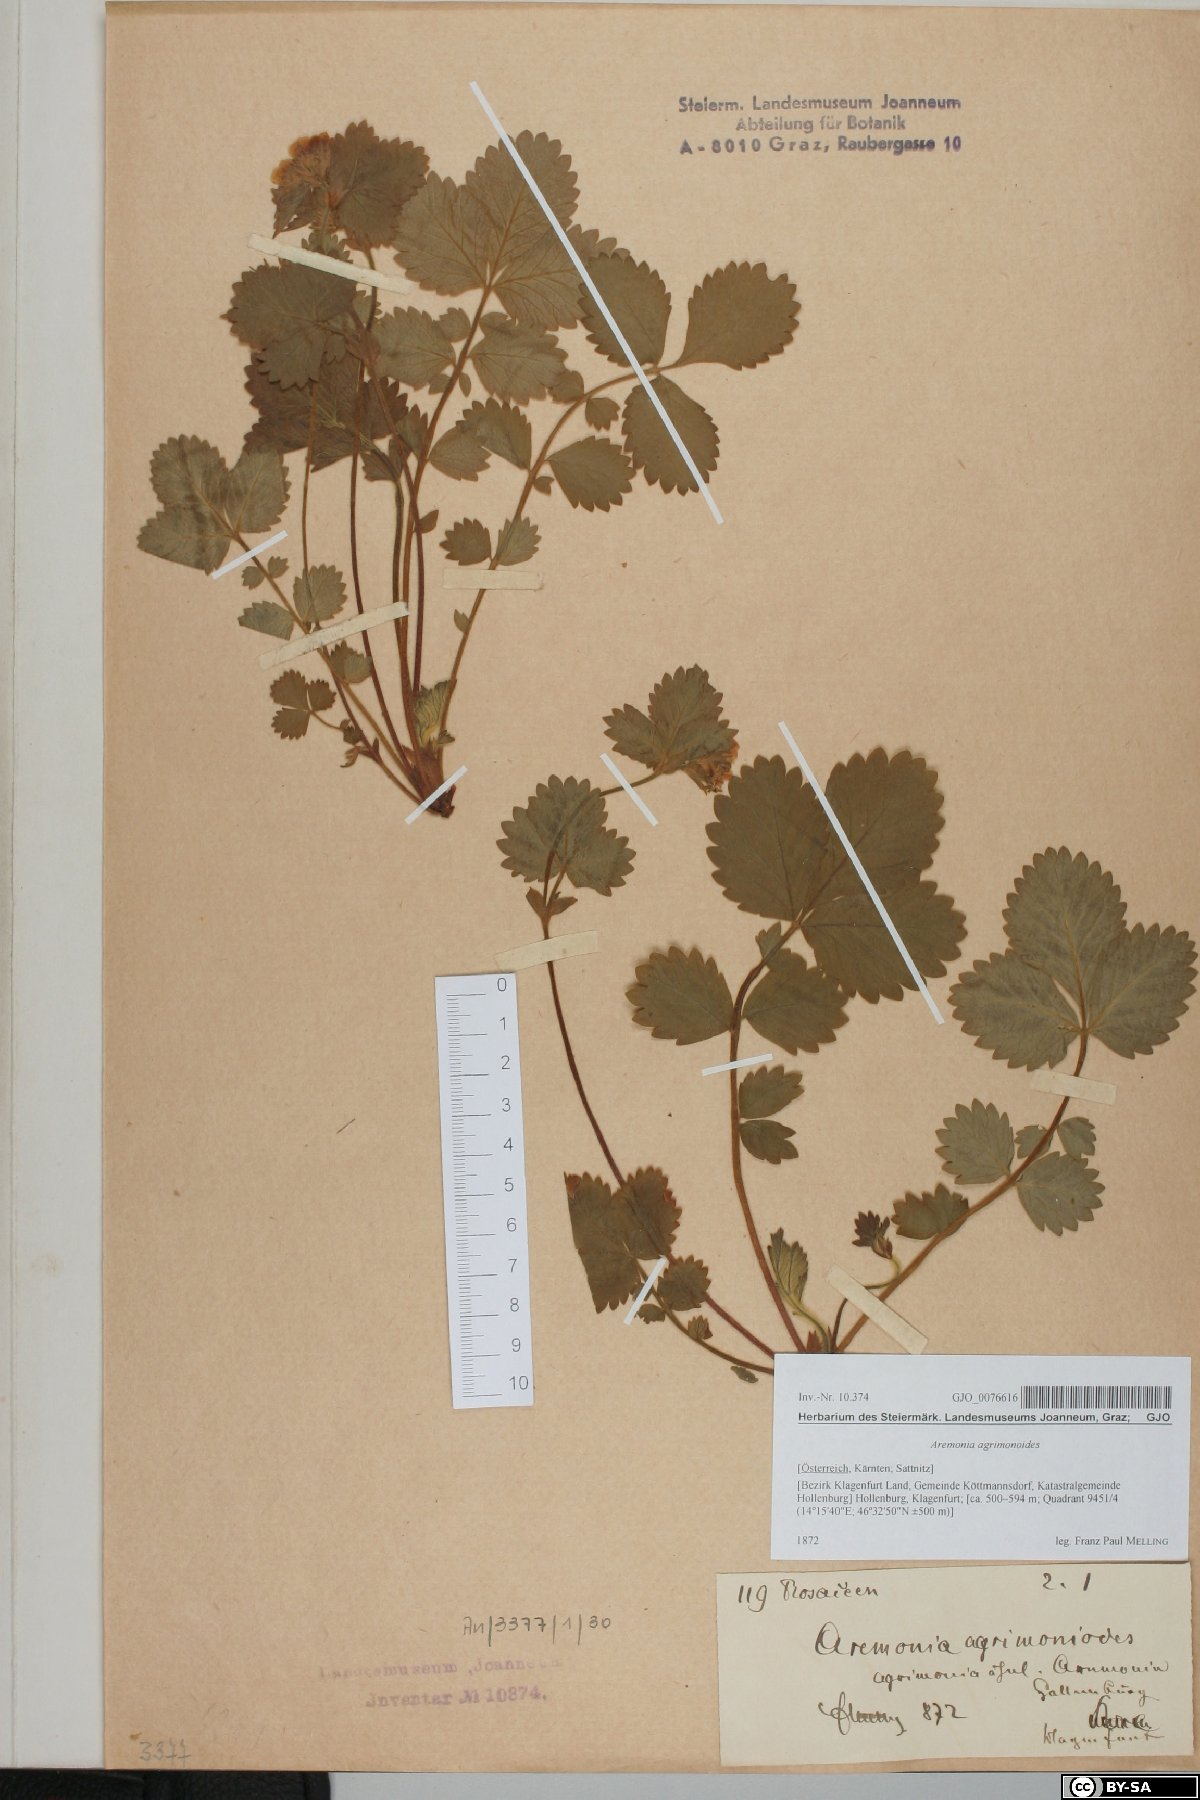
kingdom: Plantae
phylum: Tracheophyta
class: Magnoliopsida
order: Rosales
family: Rosaceae
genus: Aremonia
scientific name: Aremonia agrimonoides
